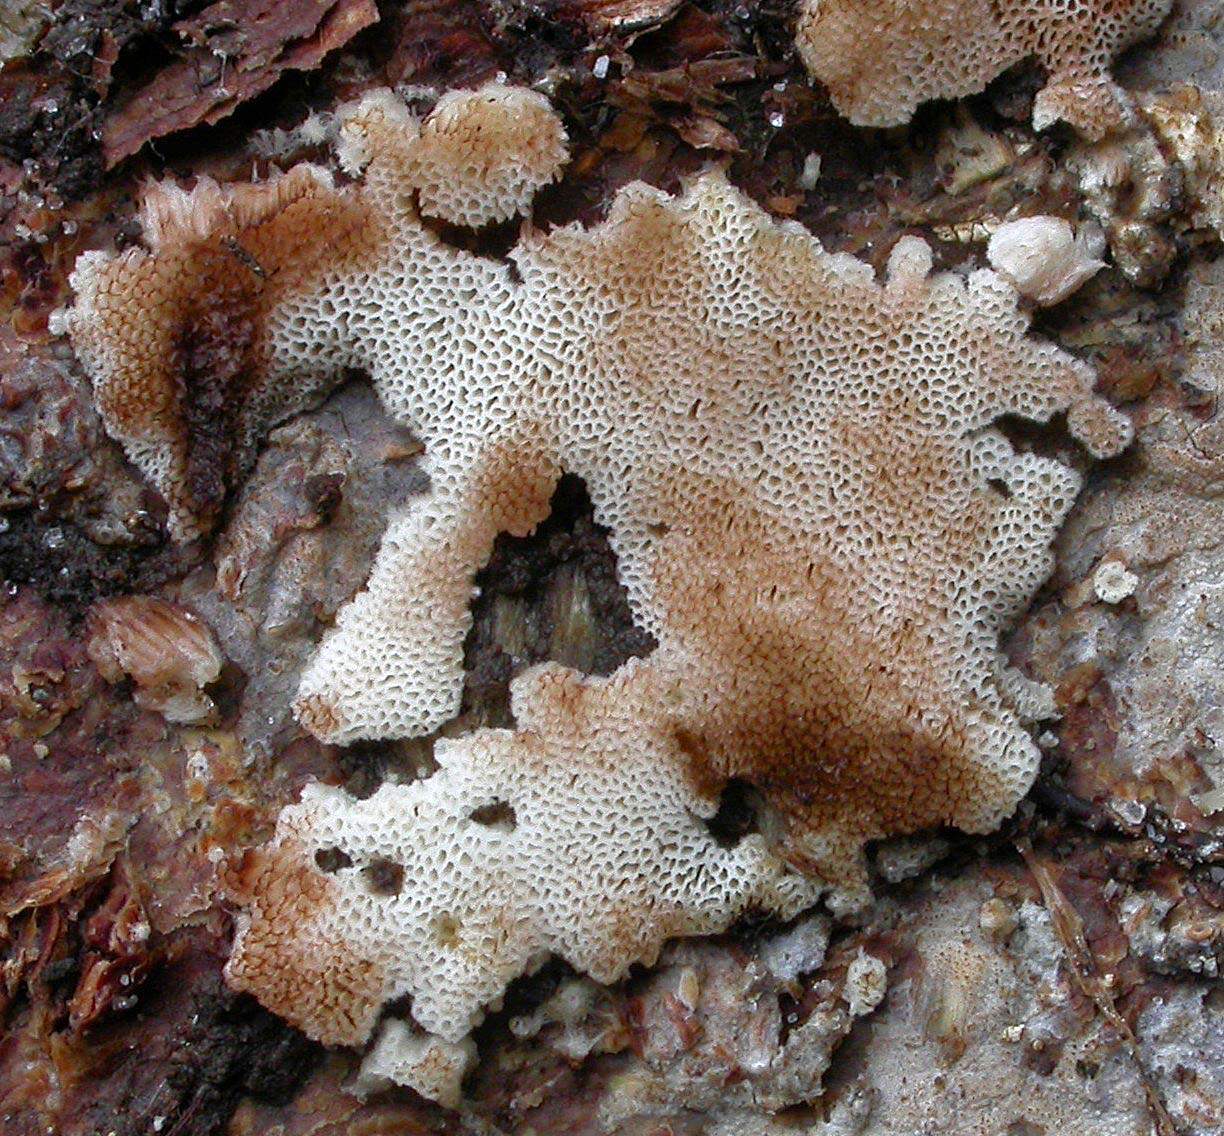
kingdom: Fungi
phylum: Basidiomycota
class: Agaricomycetes
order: Polyporales
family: Meripilaceae
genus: Rigidoporus
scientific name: Rigidoporus sanguinolentus
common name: blod-skorpeporesvamp
